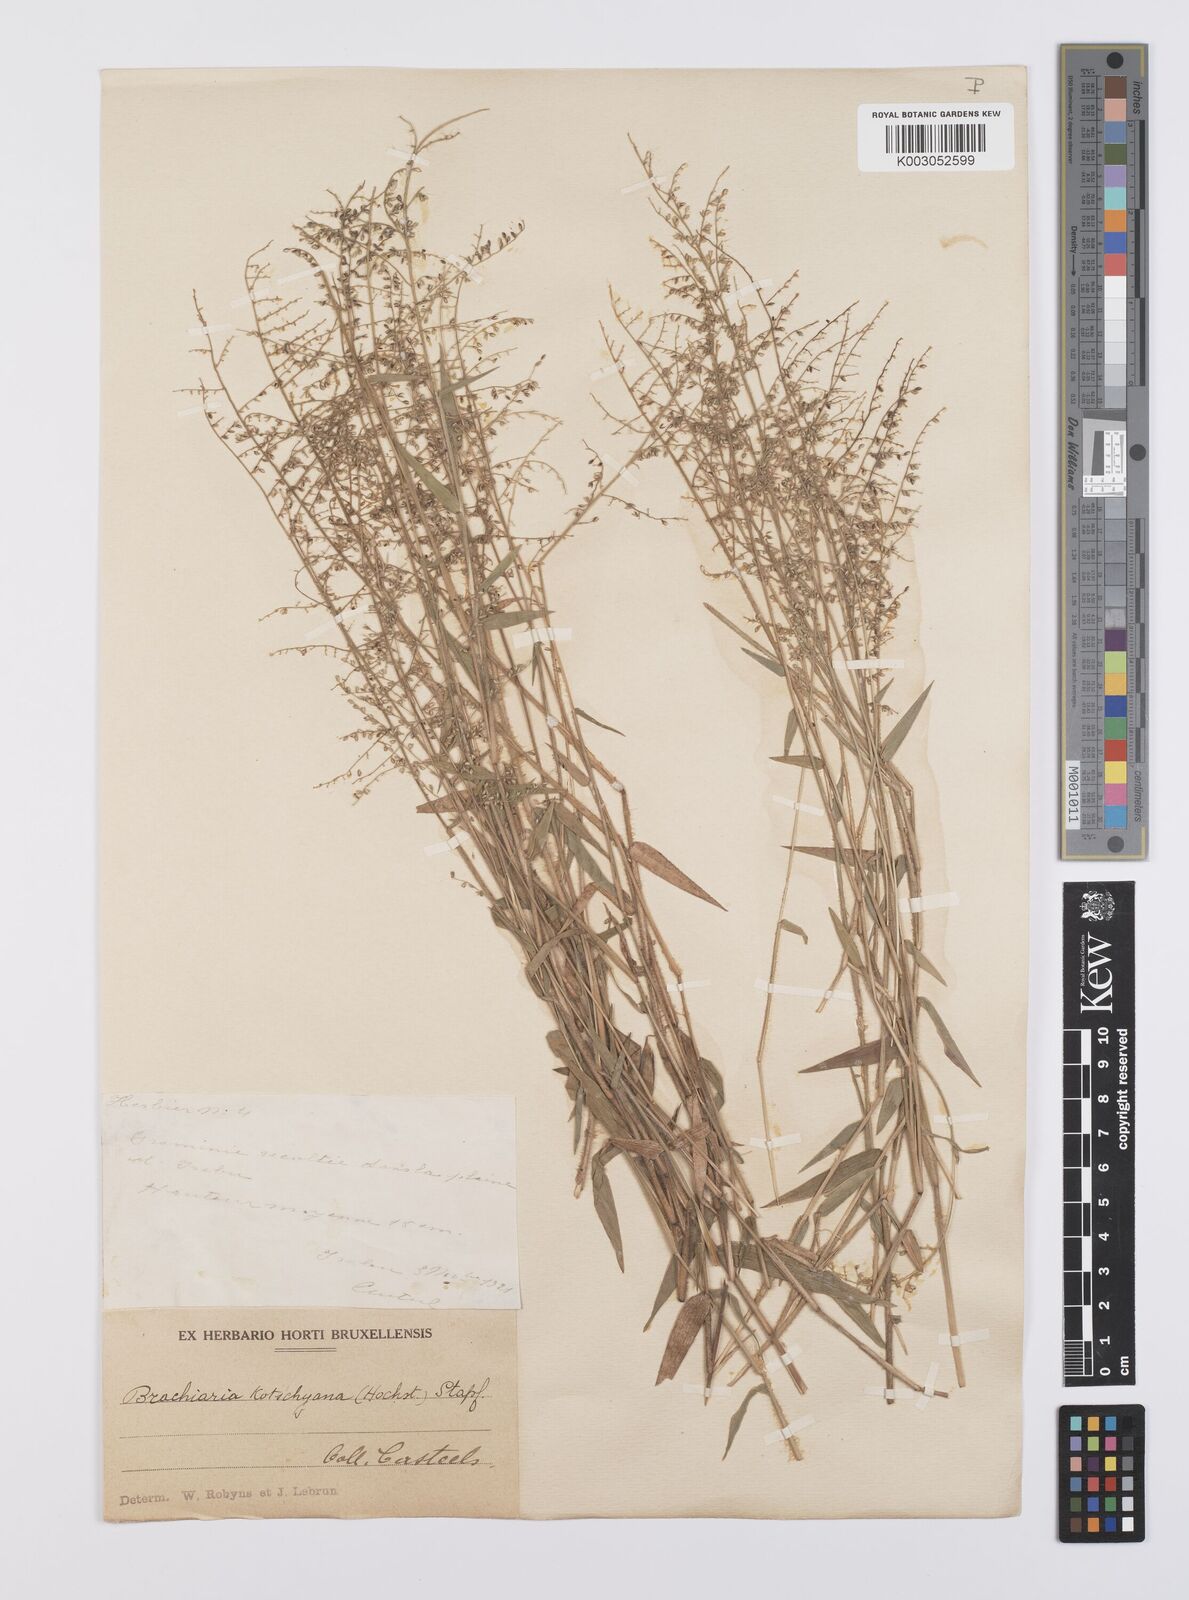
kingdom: Plantae
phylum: Tracheophyta
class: Liliopsida
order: Poales
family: Poaceae
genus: Urochloa
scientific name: Urochloa comata
